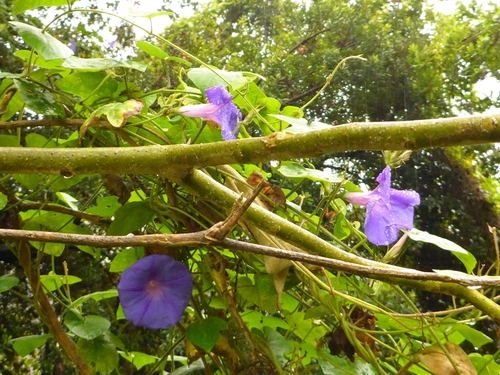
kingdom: Plantae
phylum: Tracheophyta
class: Magnoliopsida
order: Solanales
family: Convolvulaceae
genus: Ipomoea
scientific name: Ipomoea indica
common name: Blue dawnflower
